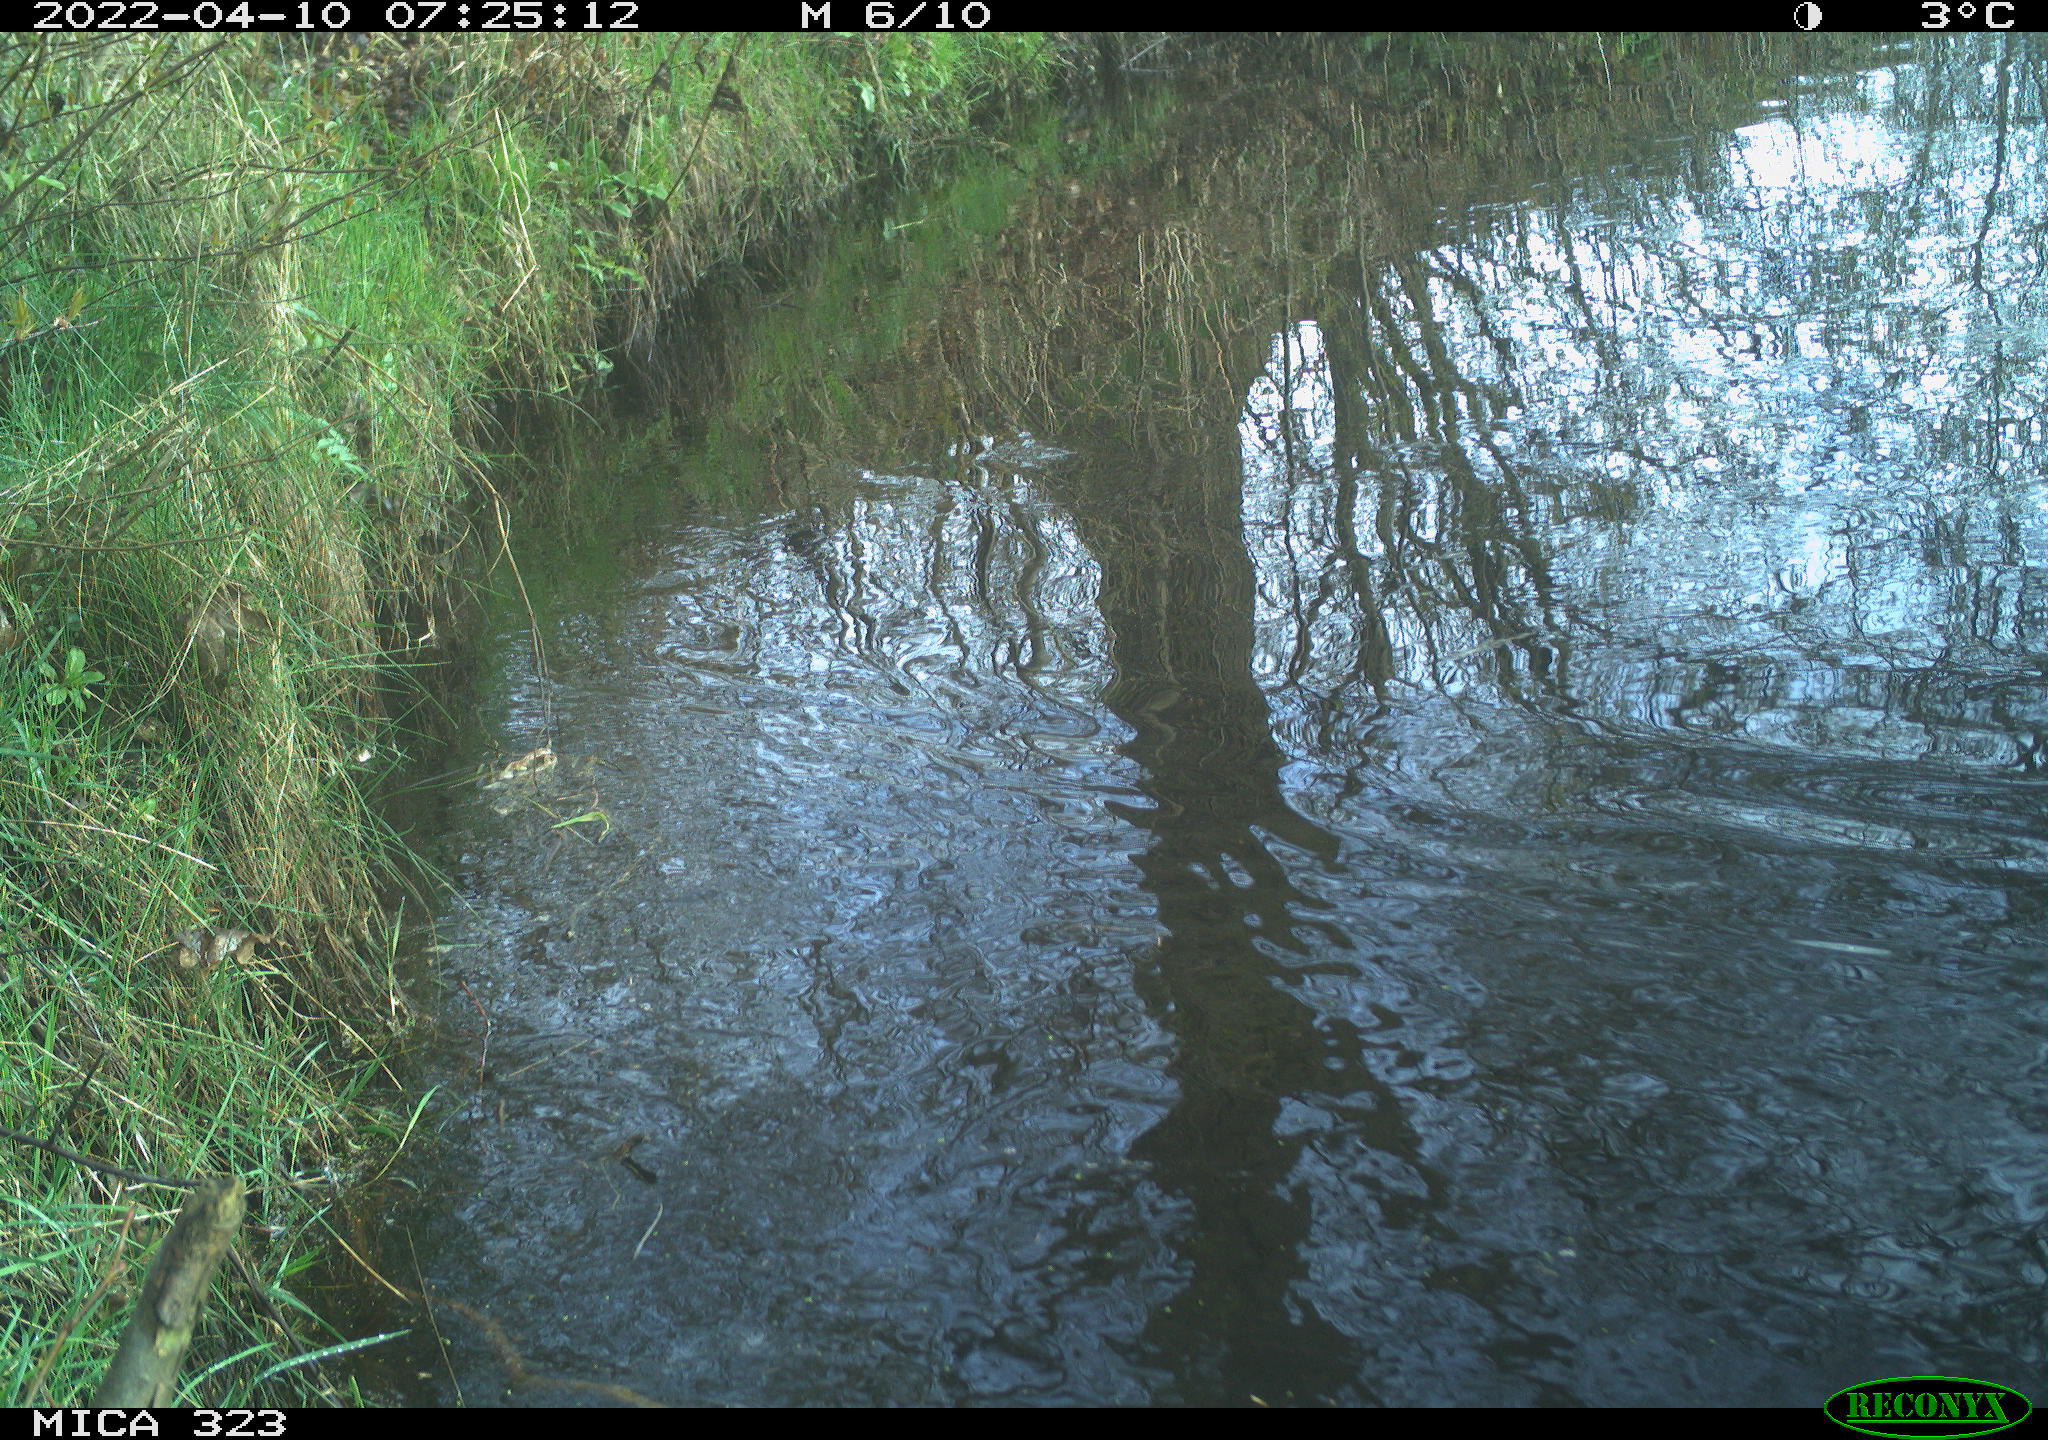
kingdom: Animalia
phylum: Chordata
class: Aves
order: Anseriformes
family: Anatidae
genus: Anas
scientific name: Anas platyrhynchos
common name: Mallard
